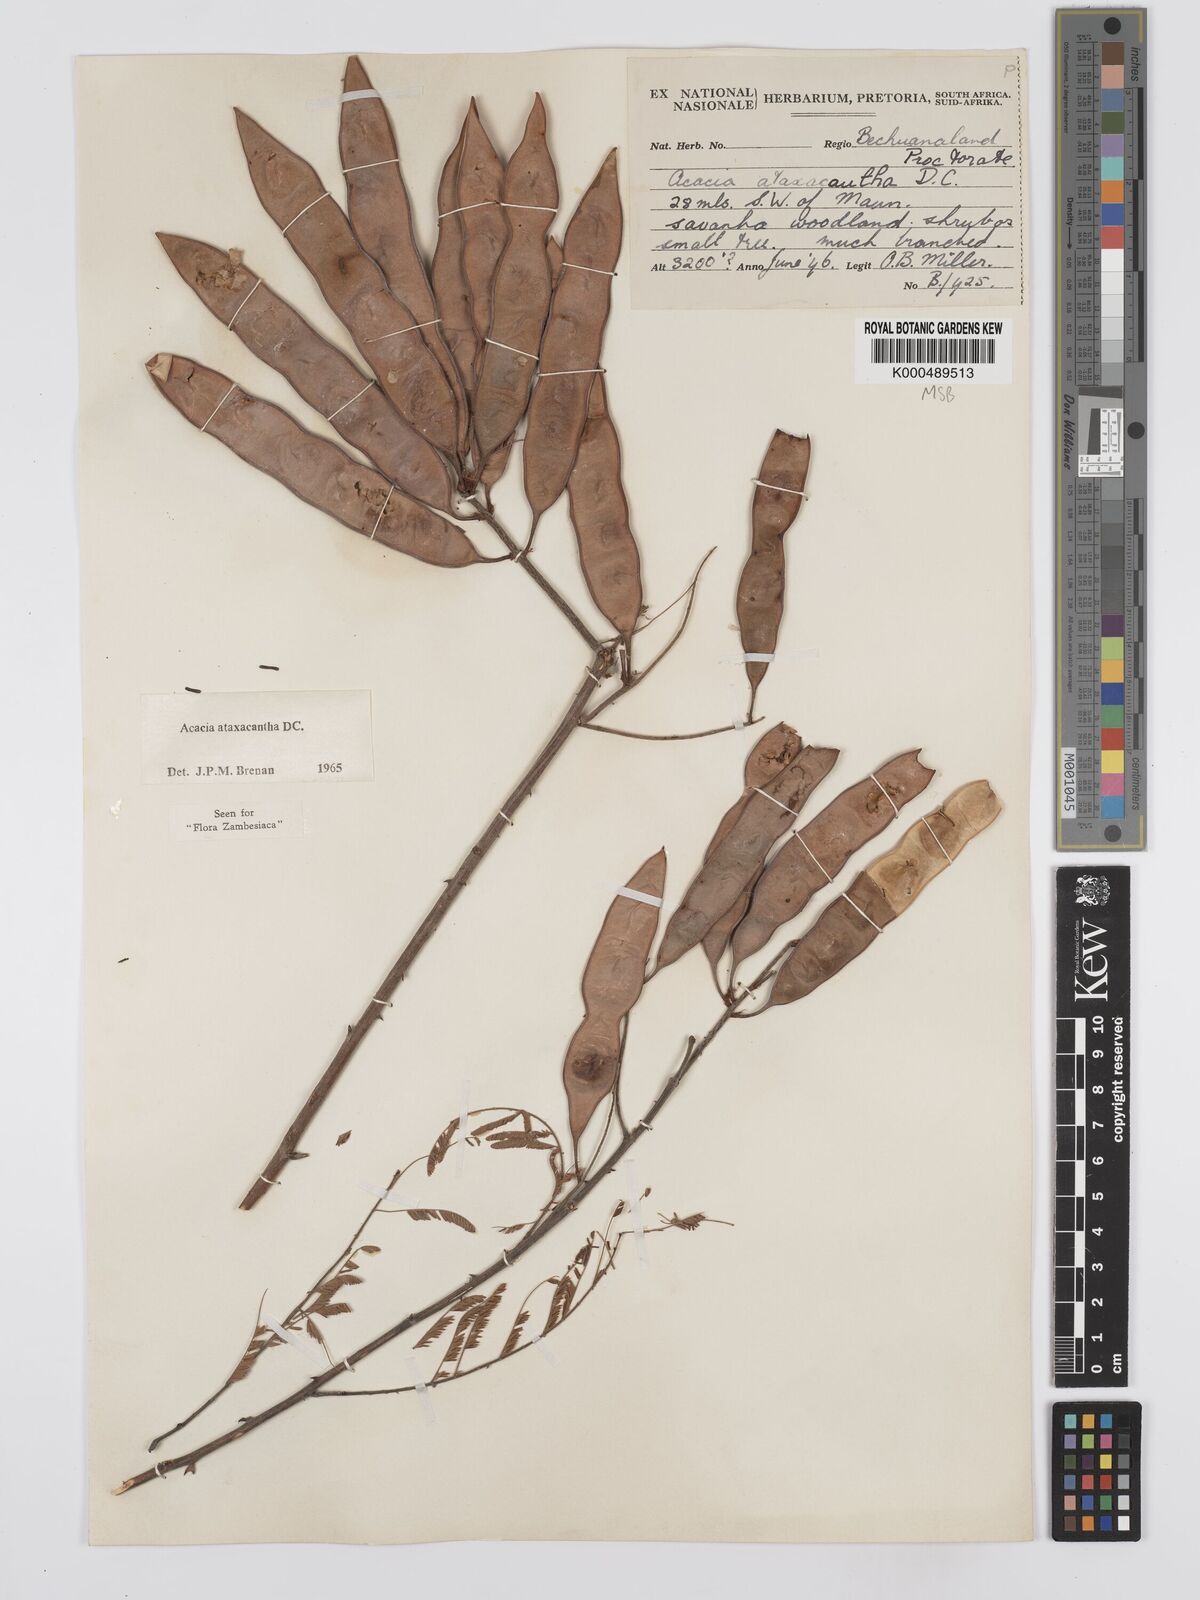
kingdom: Plantae
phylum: Tracheophyta
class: Magnoliopsida
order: Fabales
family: Fabaceae
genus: Senegalia
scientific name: Senegalia ataxacantha
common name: Flame acacia
